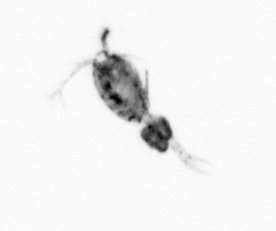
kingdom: Animalia
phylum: Arthropoda
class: Copepoda
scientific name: Copepoda
